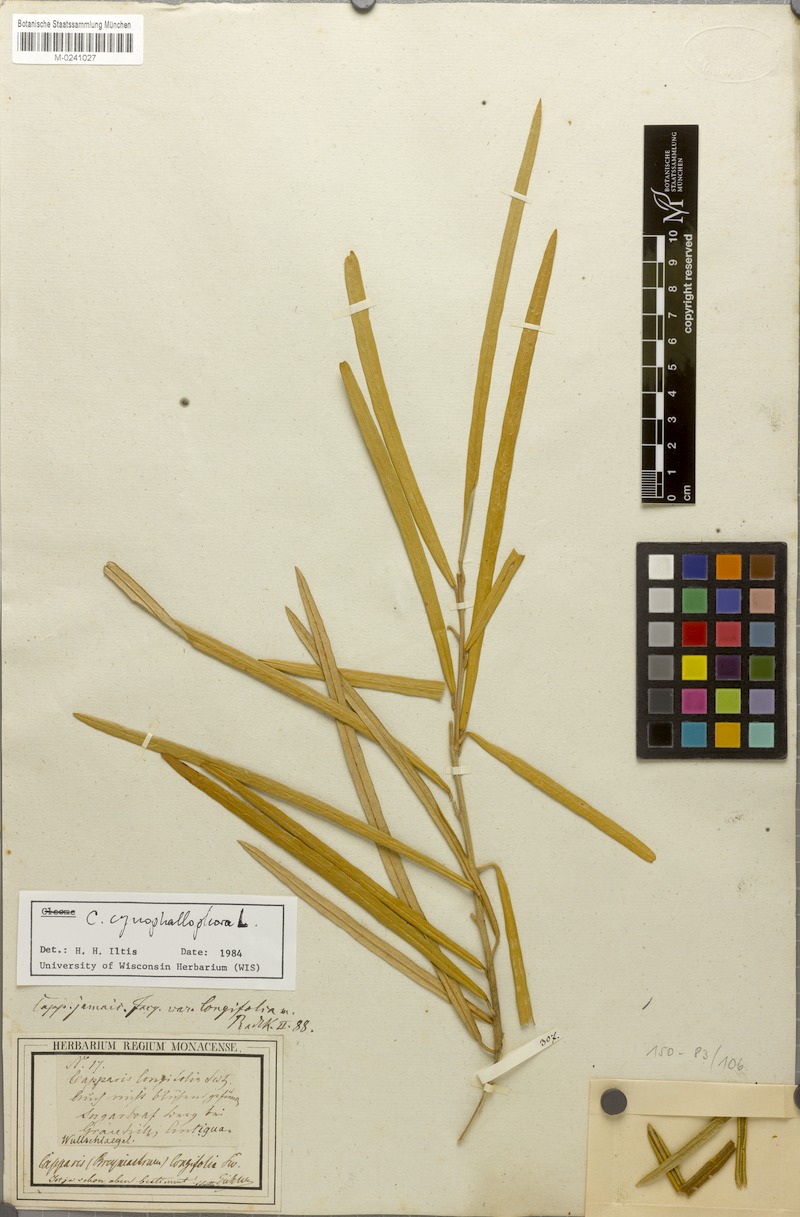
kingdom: Plantae
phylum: Tracheophyta
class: Magnoliopsida
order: Brassicales
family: Capparaceae
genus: Quadrella
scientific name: Quadrella cynophallophora
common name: Black willow
